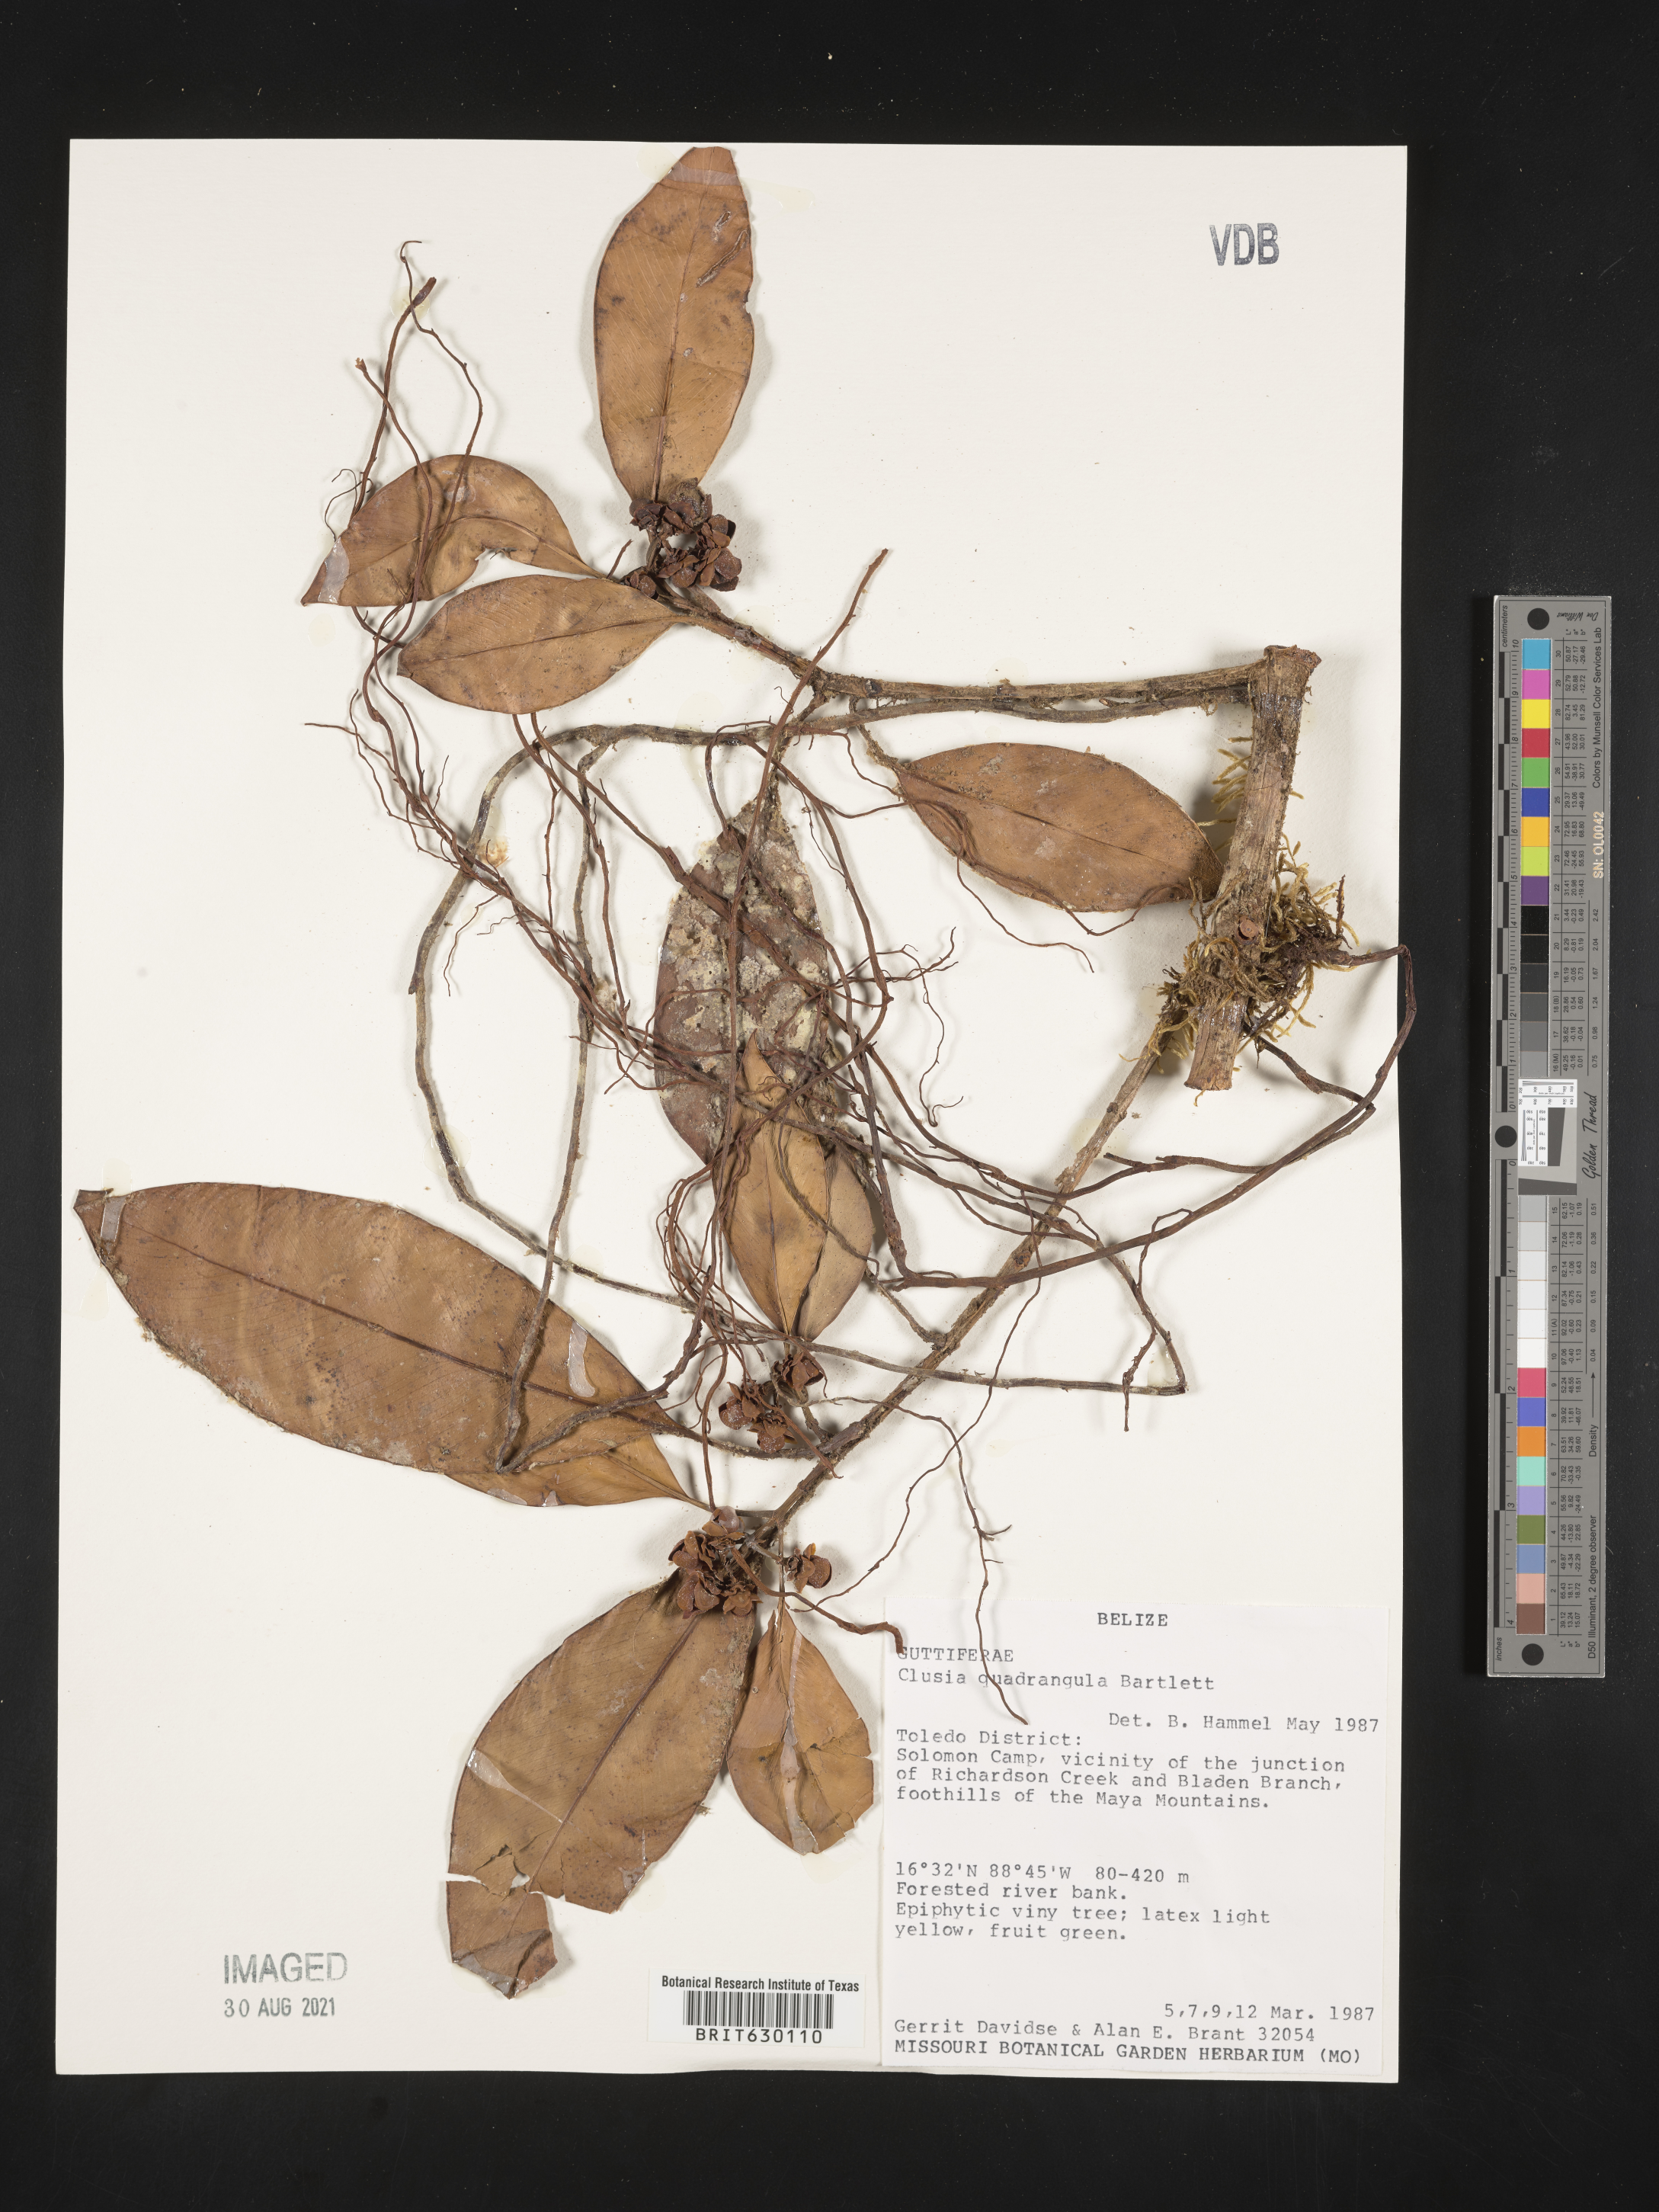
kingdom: Plantae
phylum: Tracheophyta
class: Magnoliopsida
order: Malpighiales
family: Clusiaceae
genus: Clusia
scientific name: Clusia quadrangula
